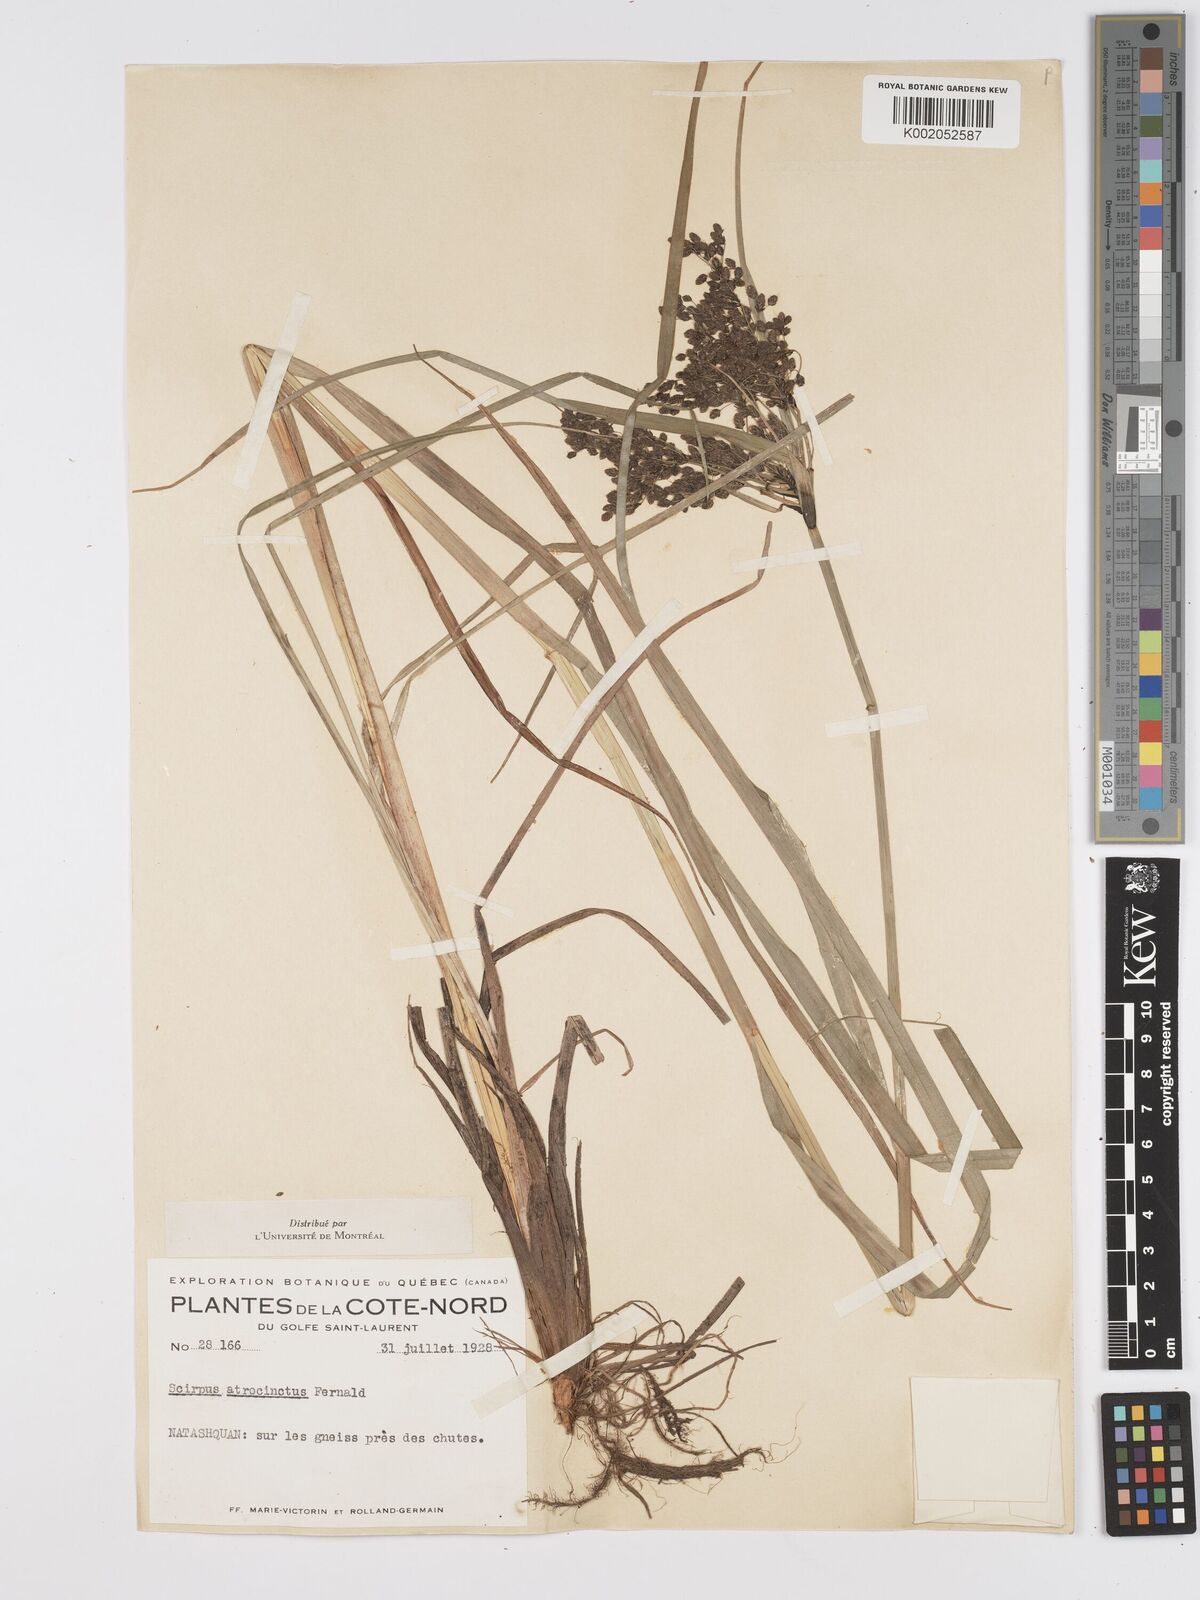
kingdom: Plantae
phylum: Tracheophyta
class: Liliopsida
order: Poales
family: Cyperaceae
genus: Scirpus
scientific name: Scirpus atrocinctus
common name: Black-girdled bulrush
